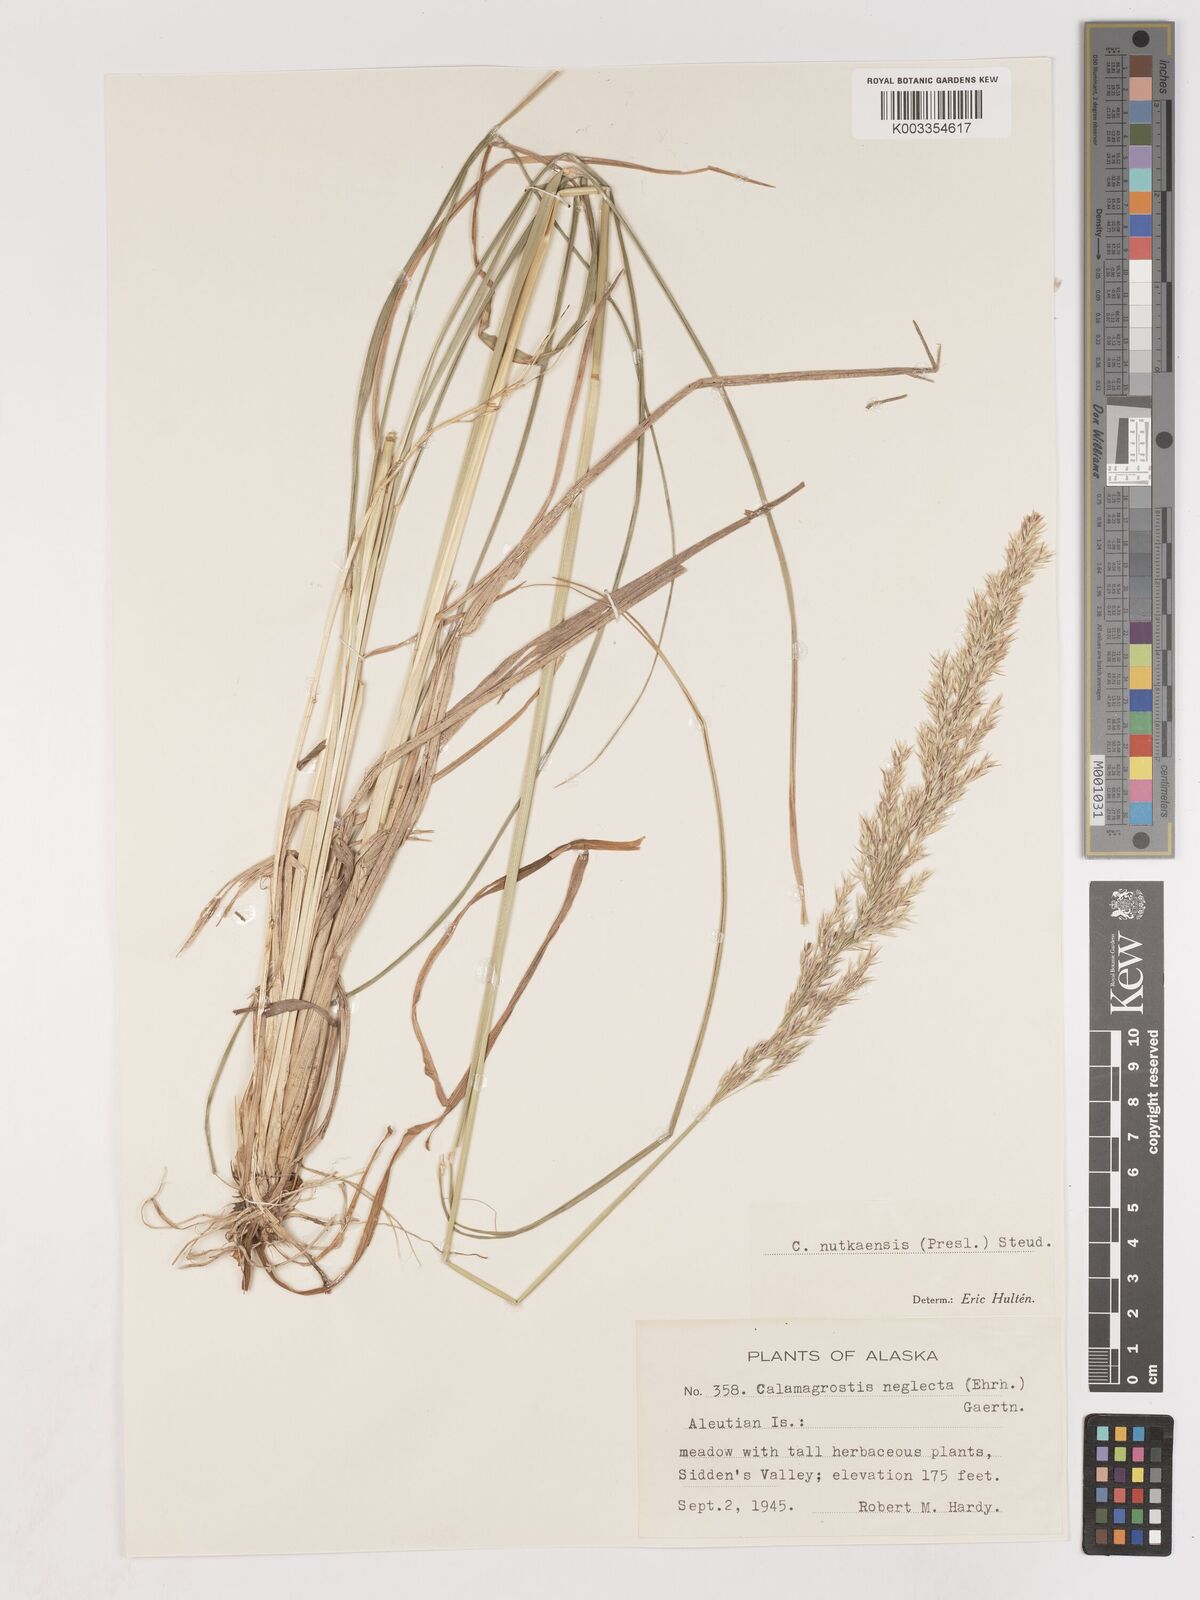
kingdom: Plantae
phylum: Tracheophyta
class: Liliopsida
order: Poales
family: Poaceae
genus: Calamagrostis
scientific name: Calamagrostis nutkaensis
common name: Pacific reed grass
